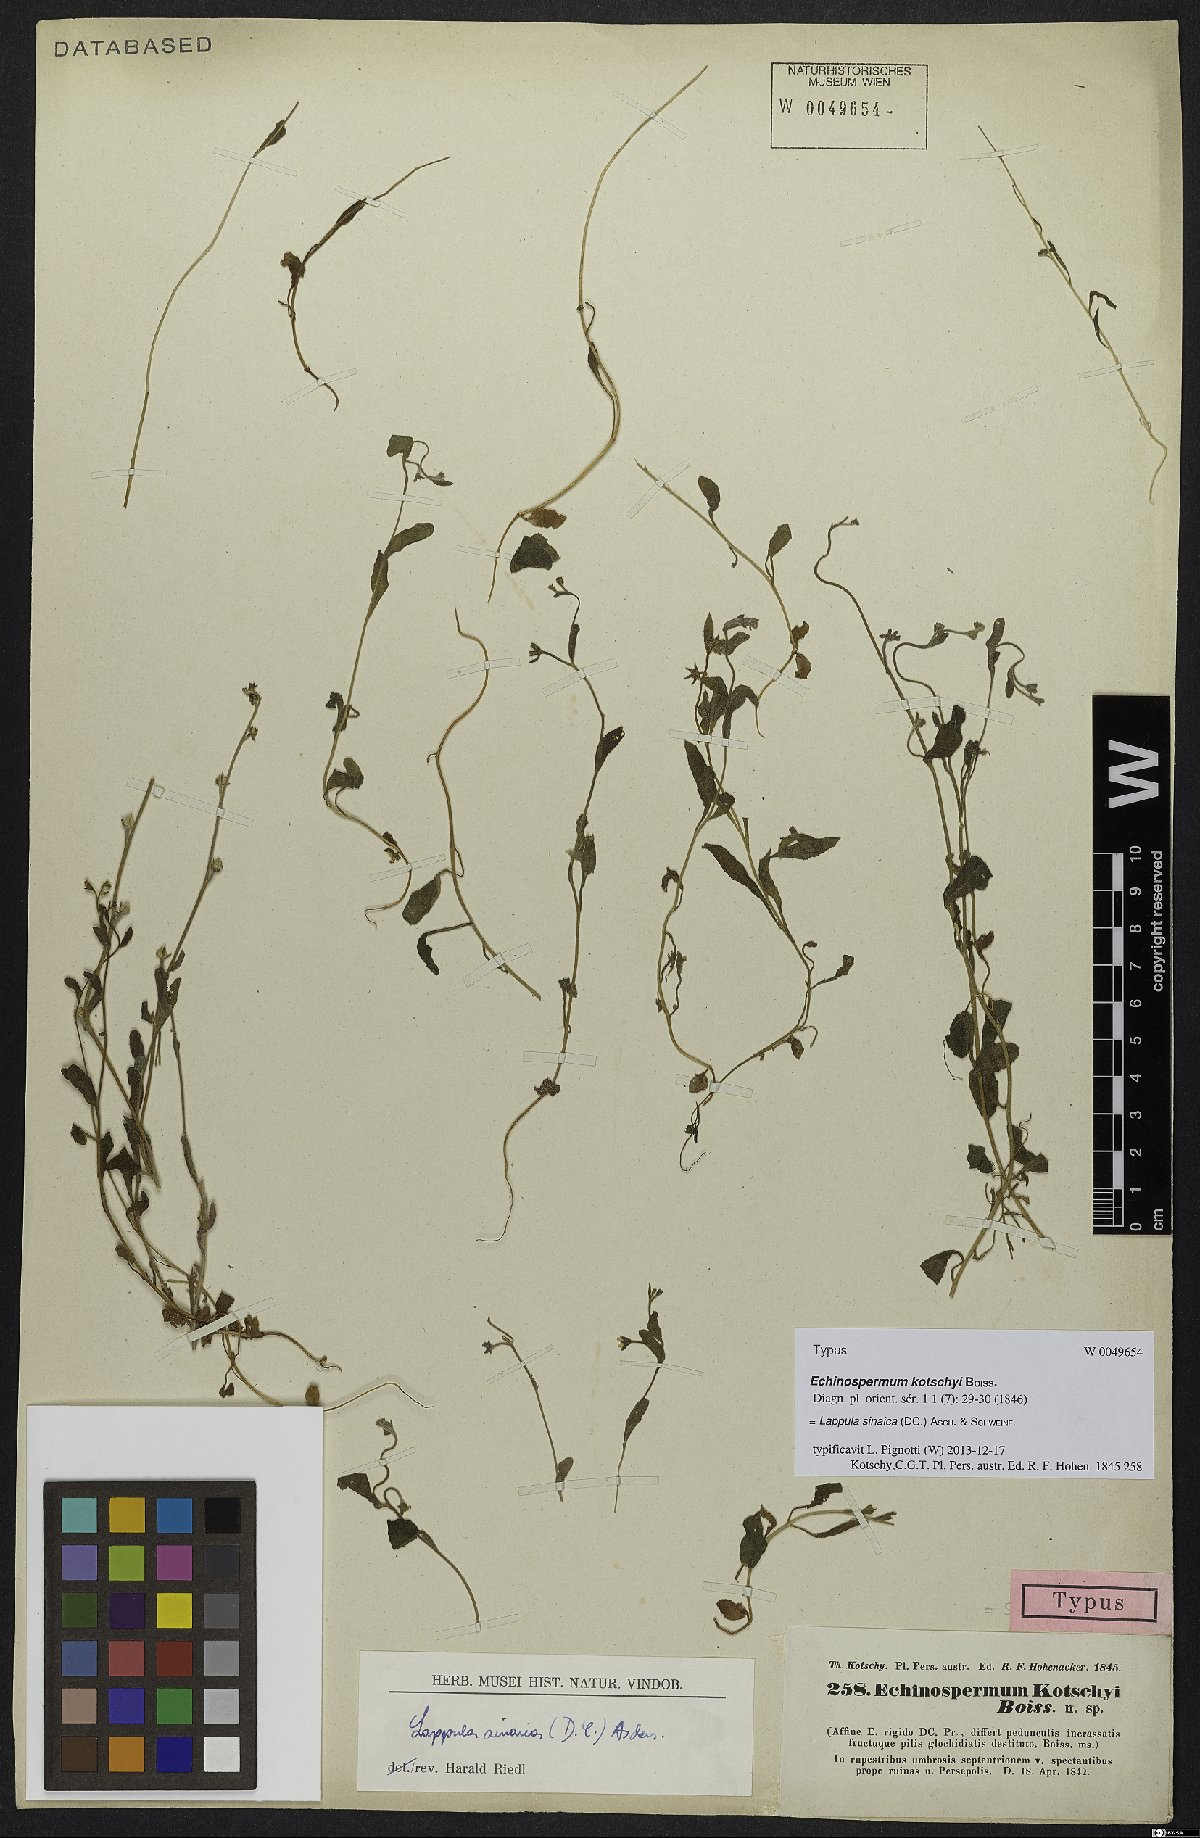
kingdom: Plantae
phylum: Tracheophyta
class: Magnoliopsida
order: Boraginales
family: Boraginaceae
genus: Pseudolappula
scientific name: Pseudolappula sinaica
